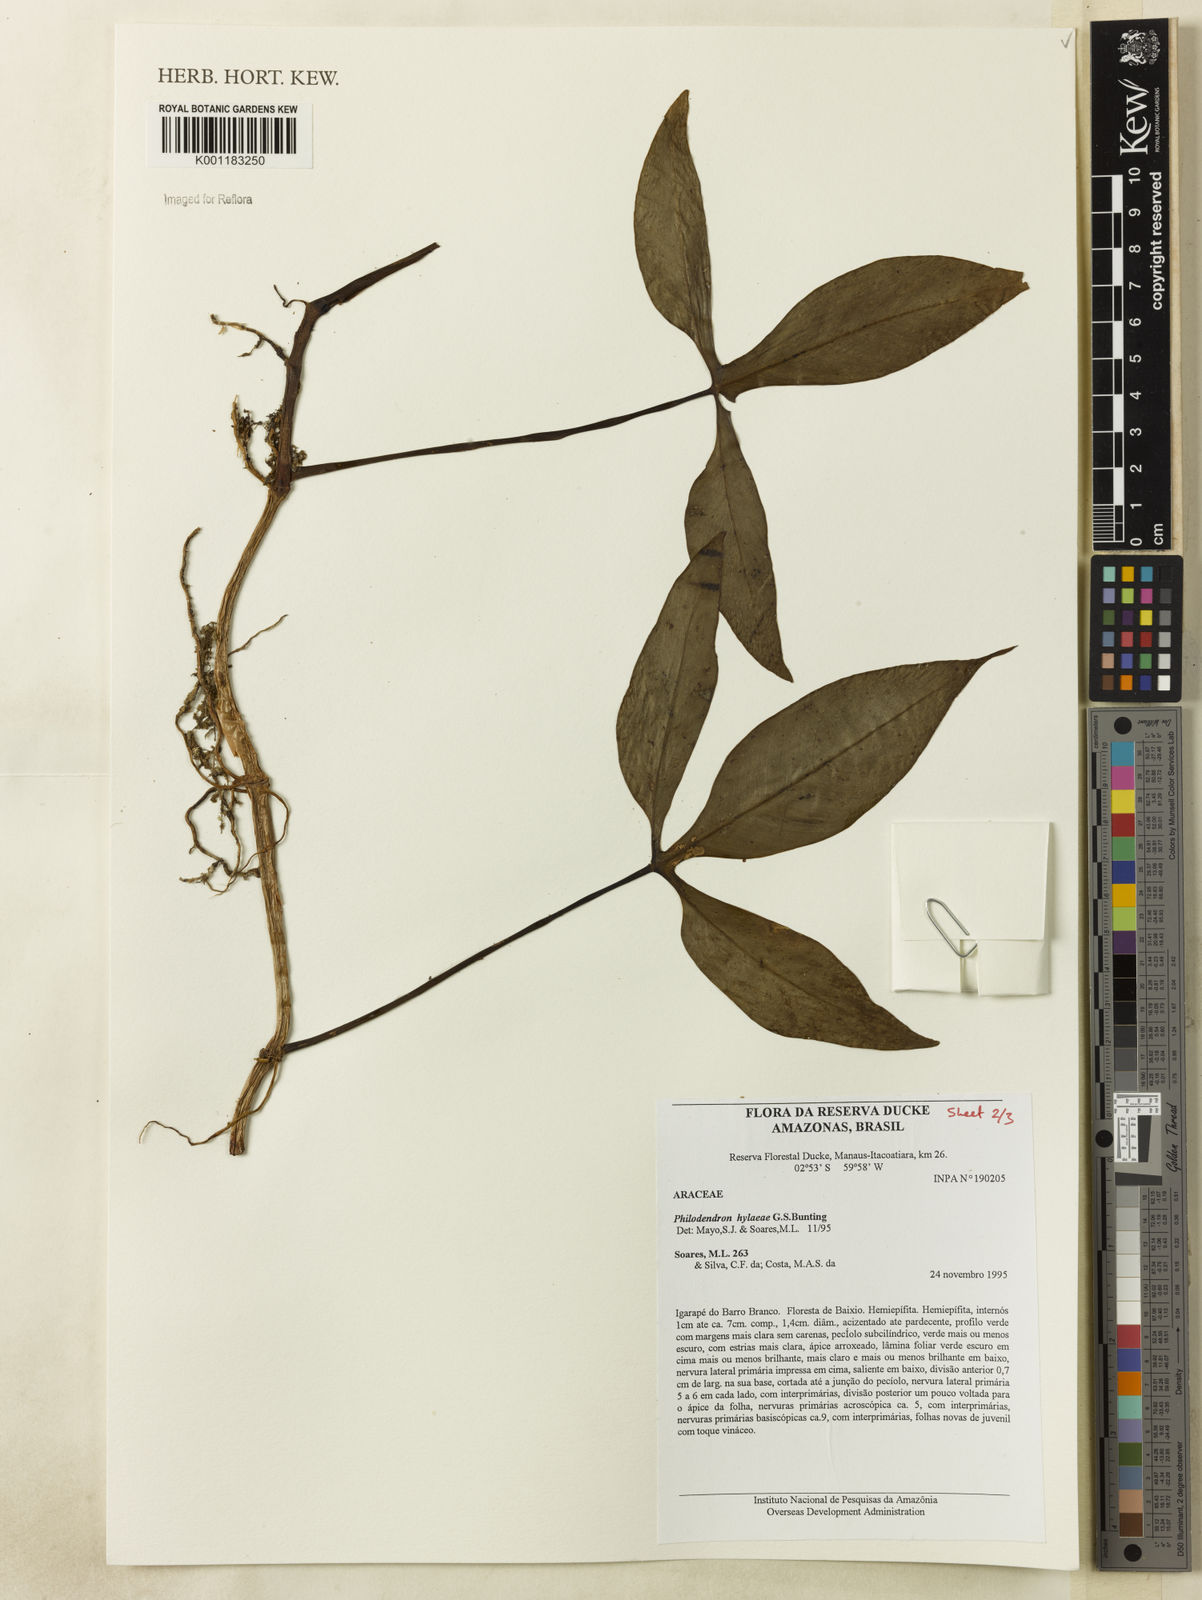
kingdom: Plantae
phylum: Tracheophyta
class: Liliopsida
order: Alismatales
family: Araceae
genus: Philodendron
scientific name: Philodendron hylaeae
